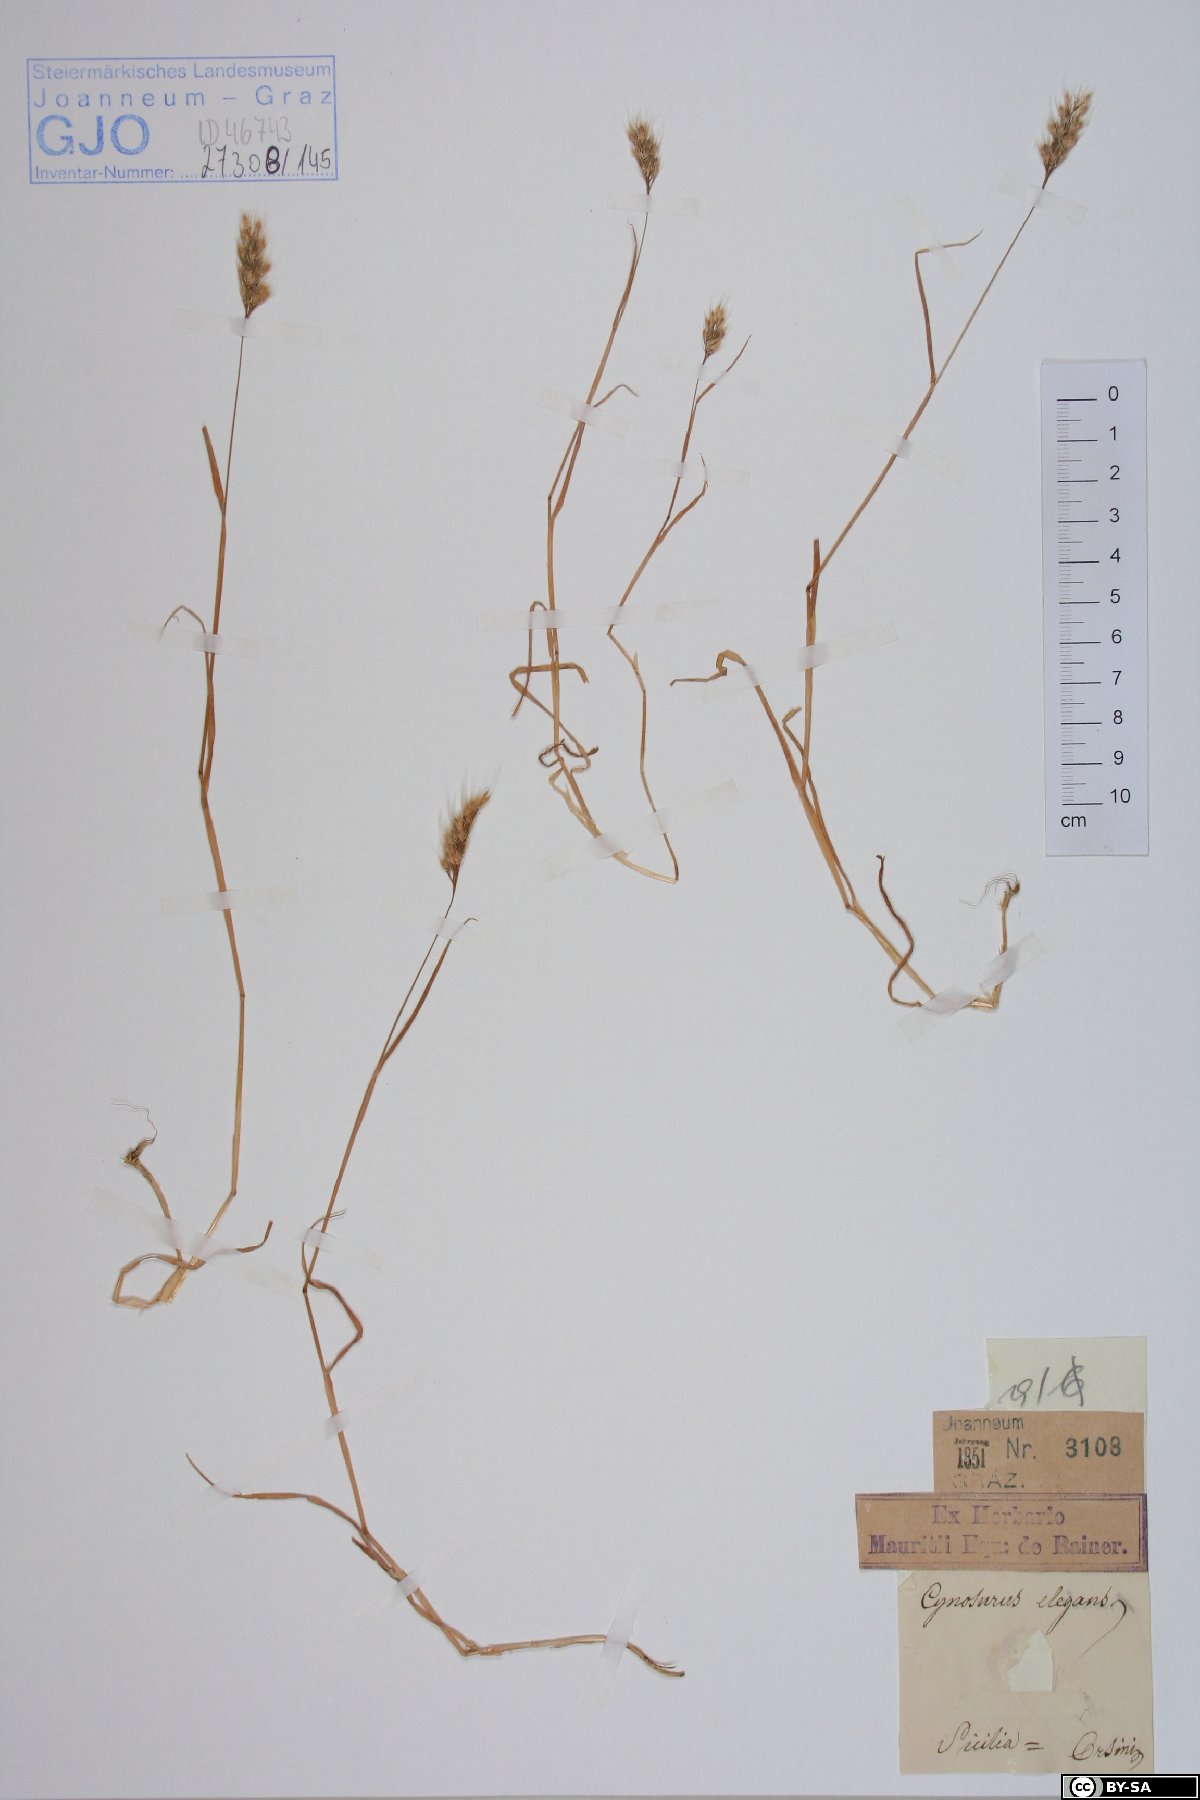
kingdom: Plantae
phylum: Tracheophyta
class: Liliopsida
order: Poales
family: Poaceae
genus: Cynosurus
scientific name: Cynosurus elegans
